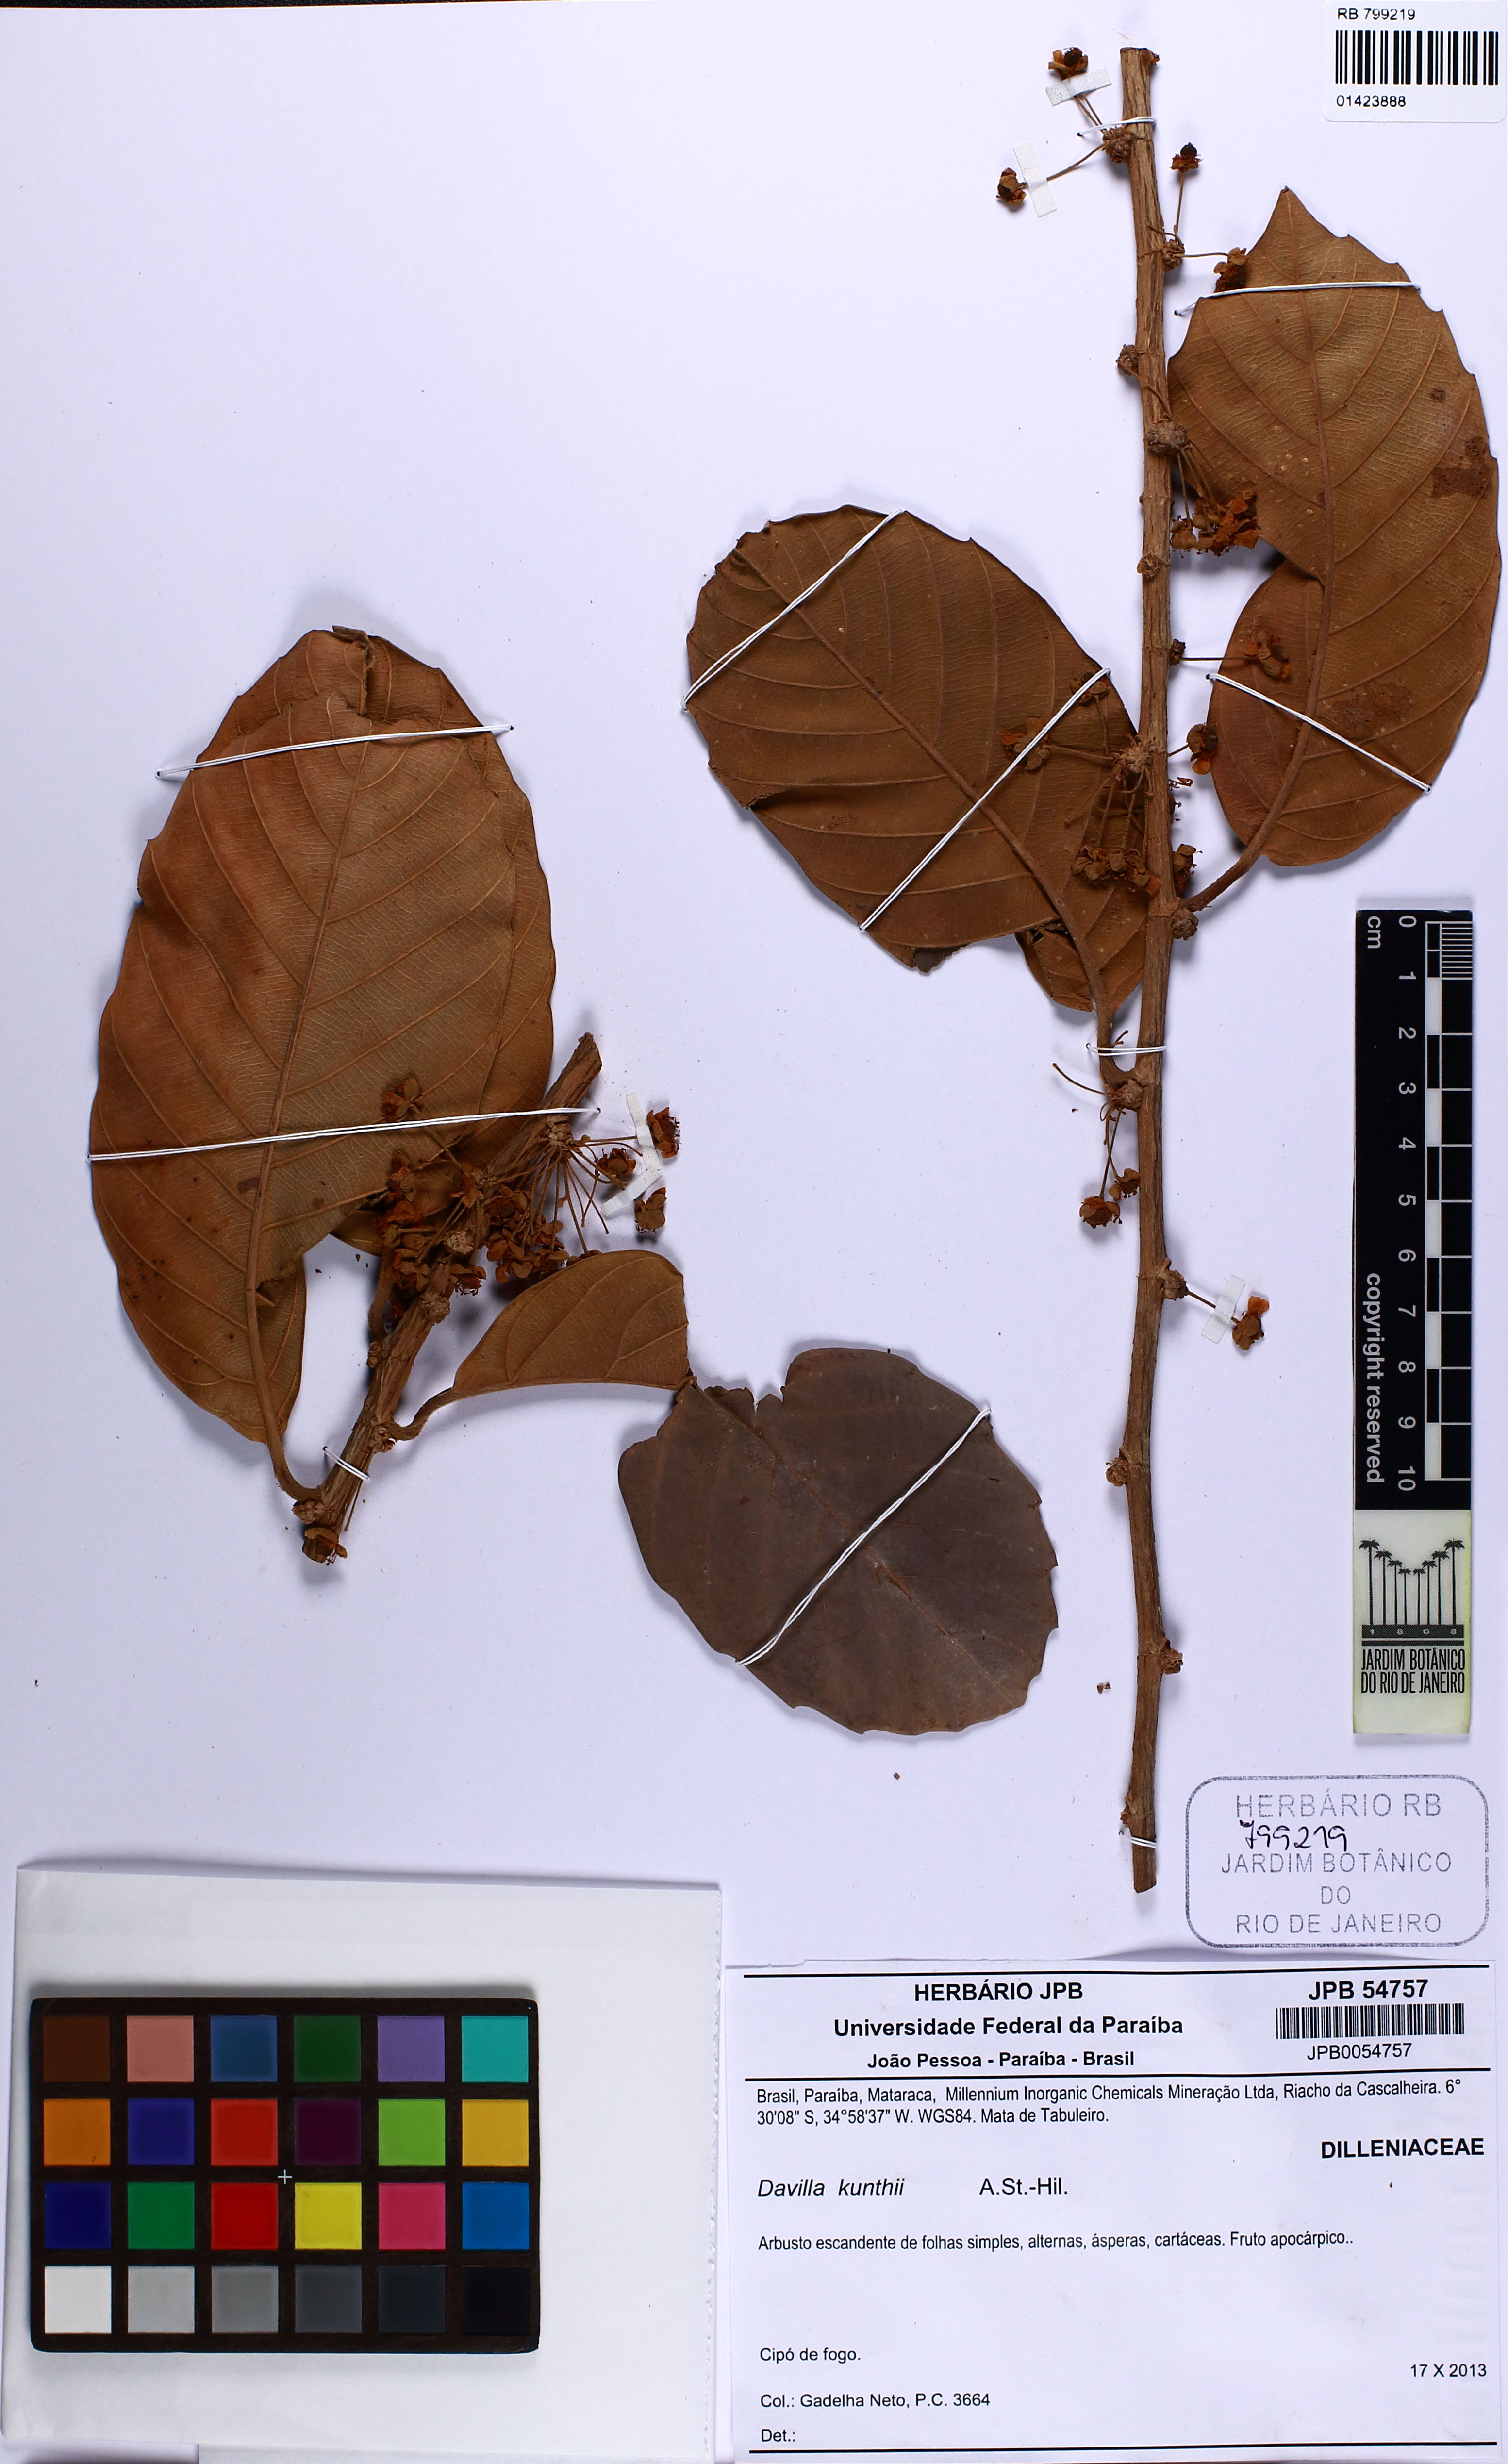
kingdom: Plantae
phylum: Tracheophyta
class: Magnoliopsida
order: Dilleniales
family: Dilleniaceae
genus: Davilla
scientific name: Davilla kunthii
